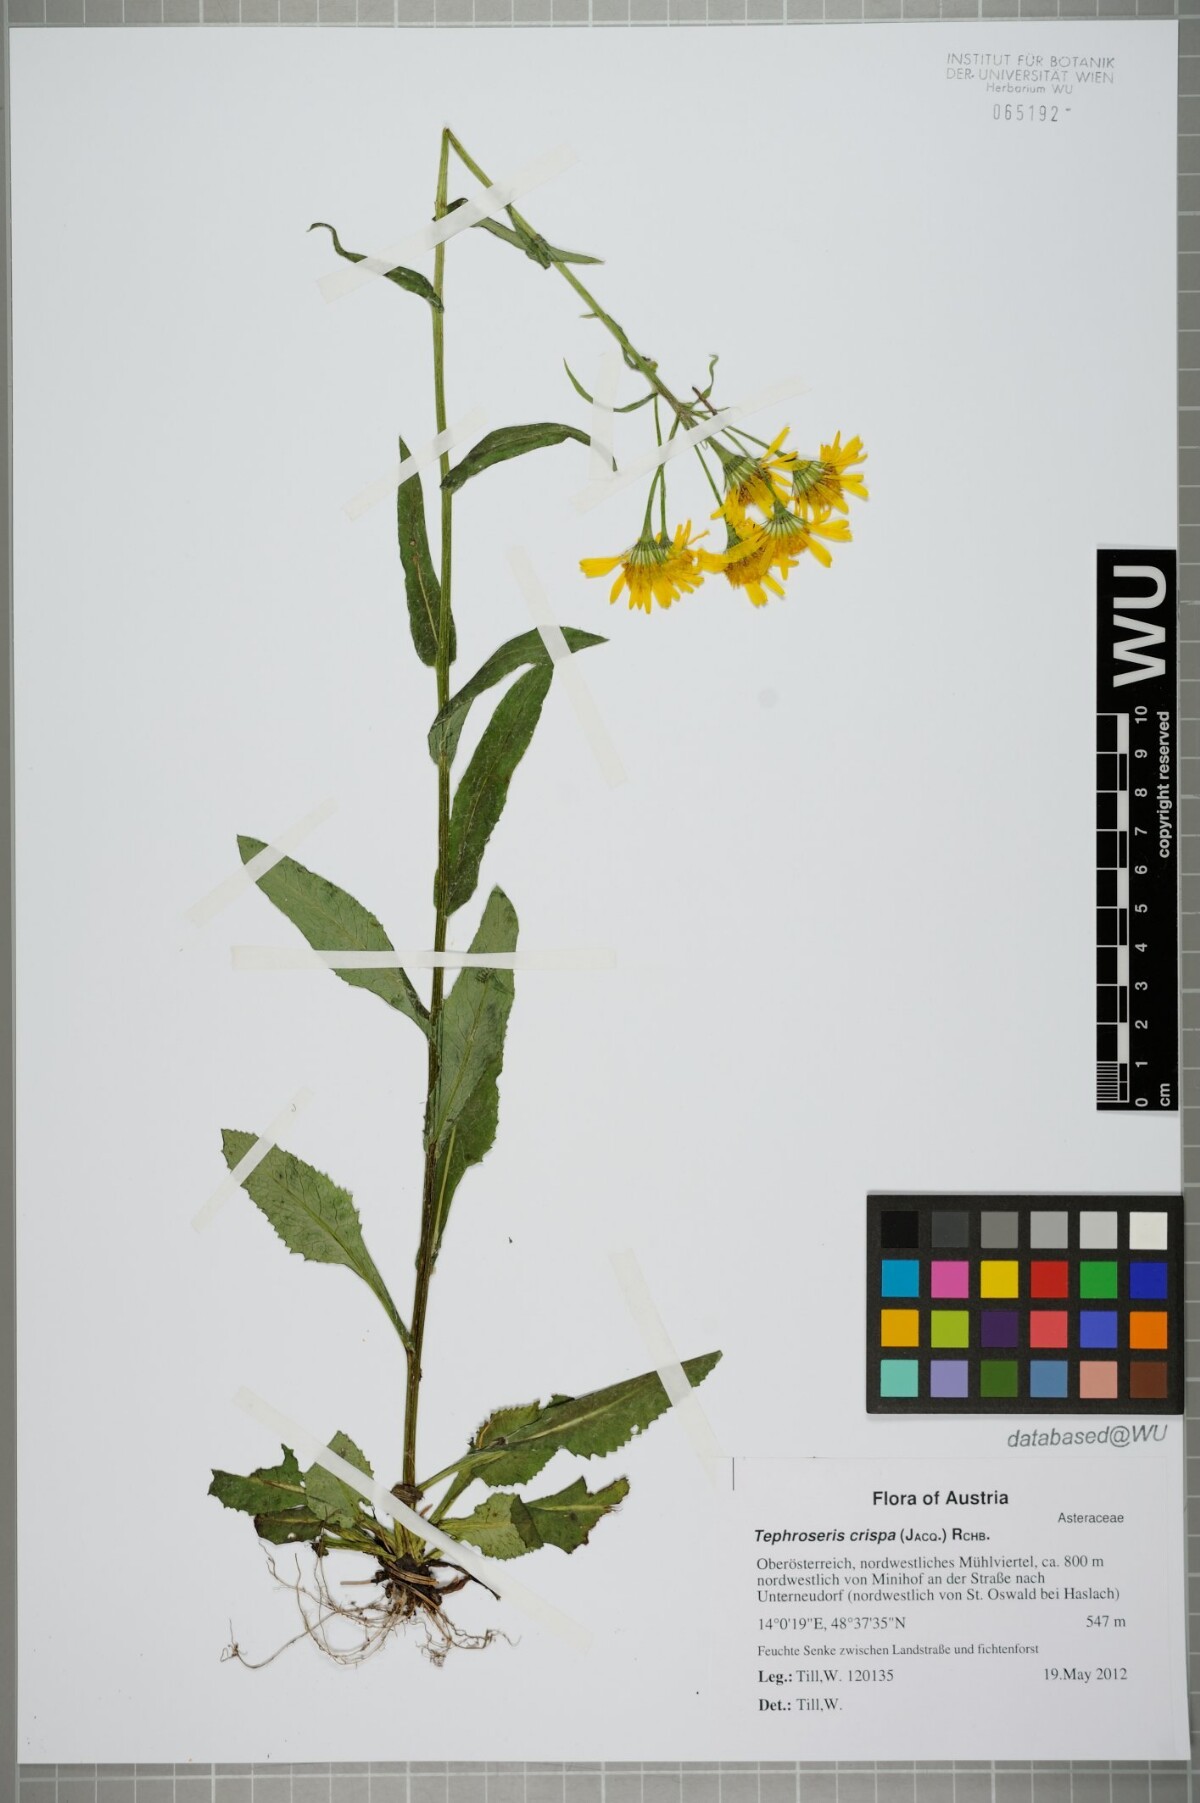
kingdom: Plantae
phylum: Tracheophyta
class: Magnoliopsida
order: Asterales
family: Asteraceae
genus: Tephroseris
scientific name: Tephroseris crispa
